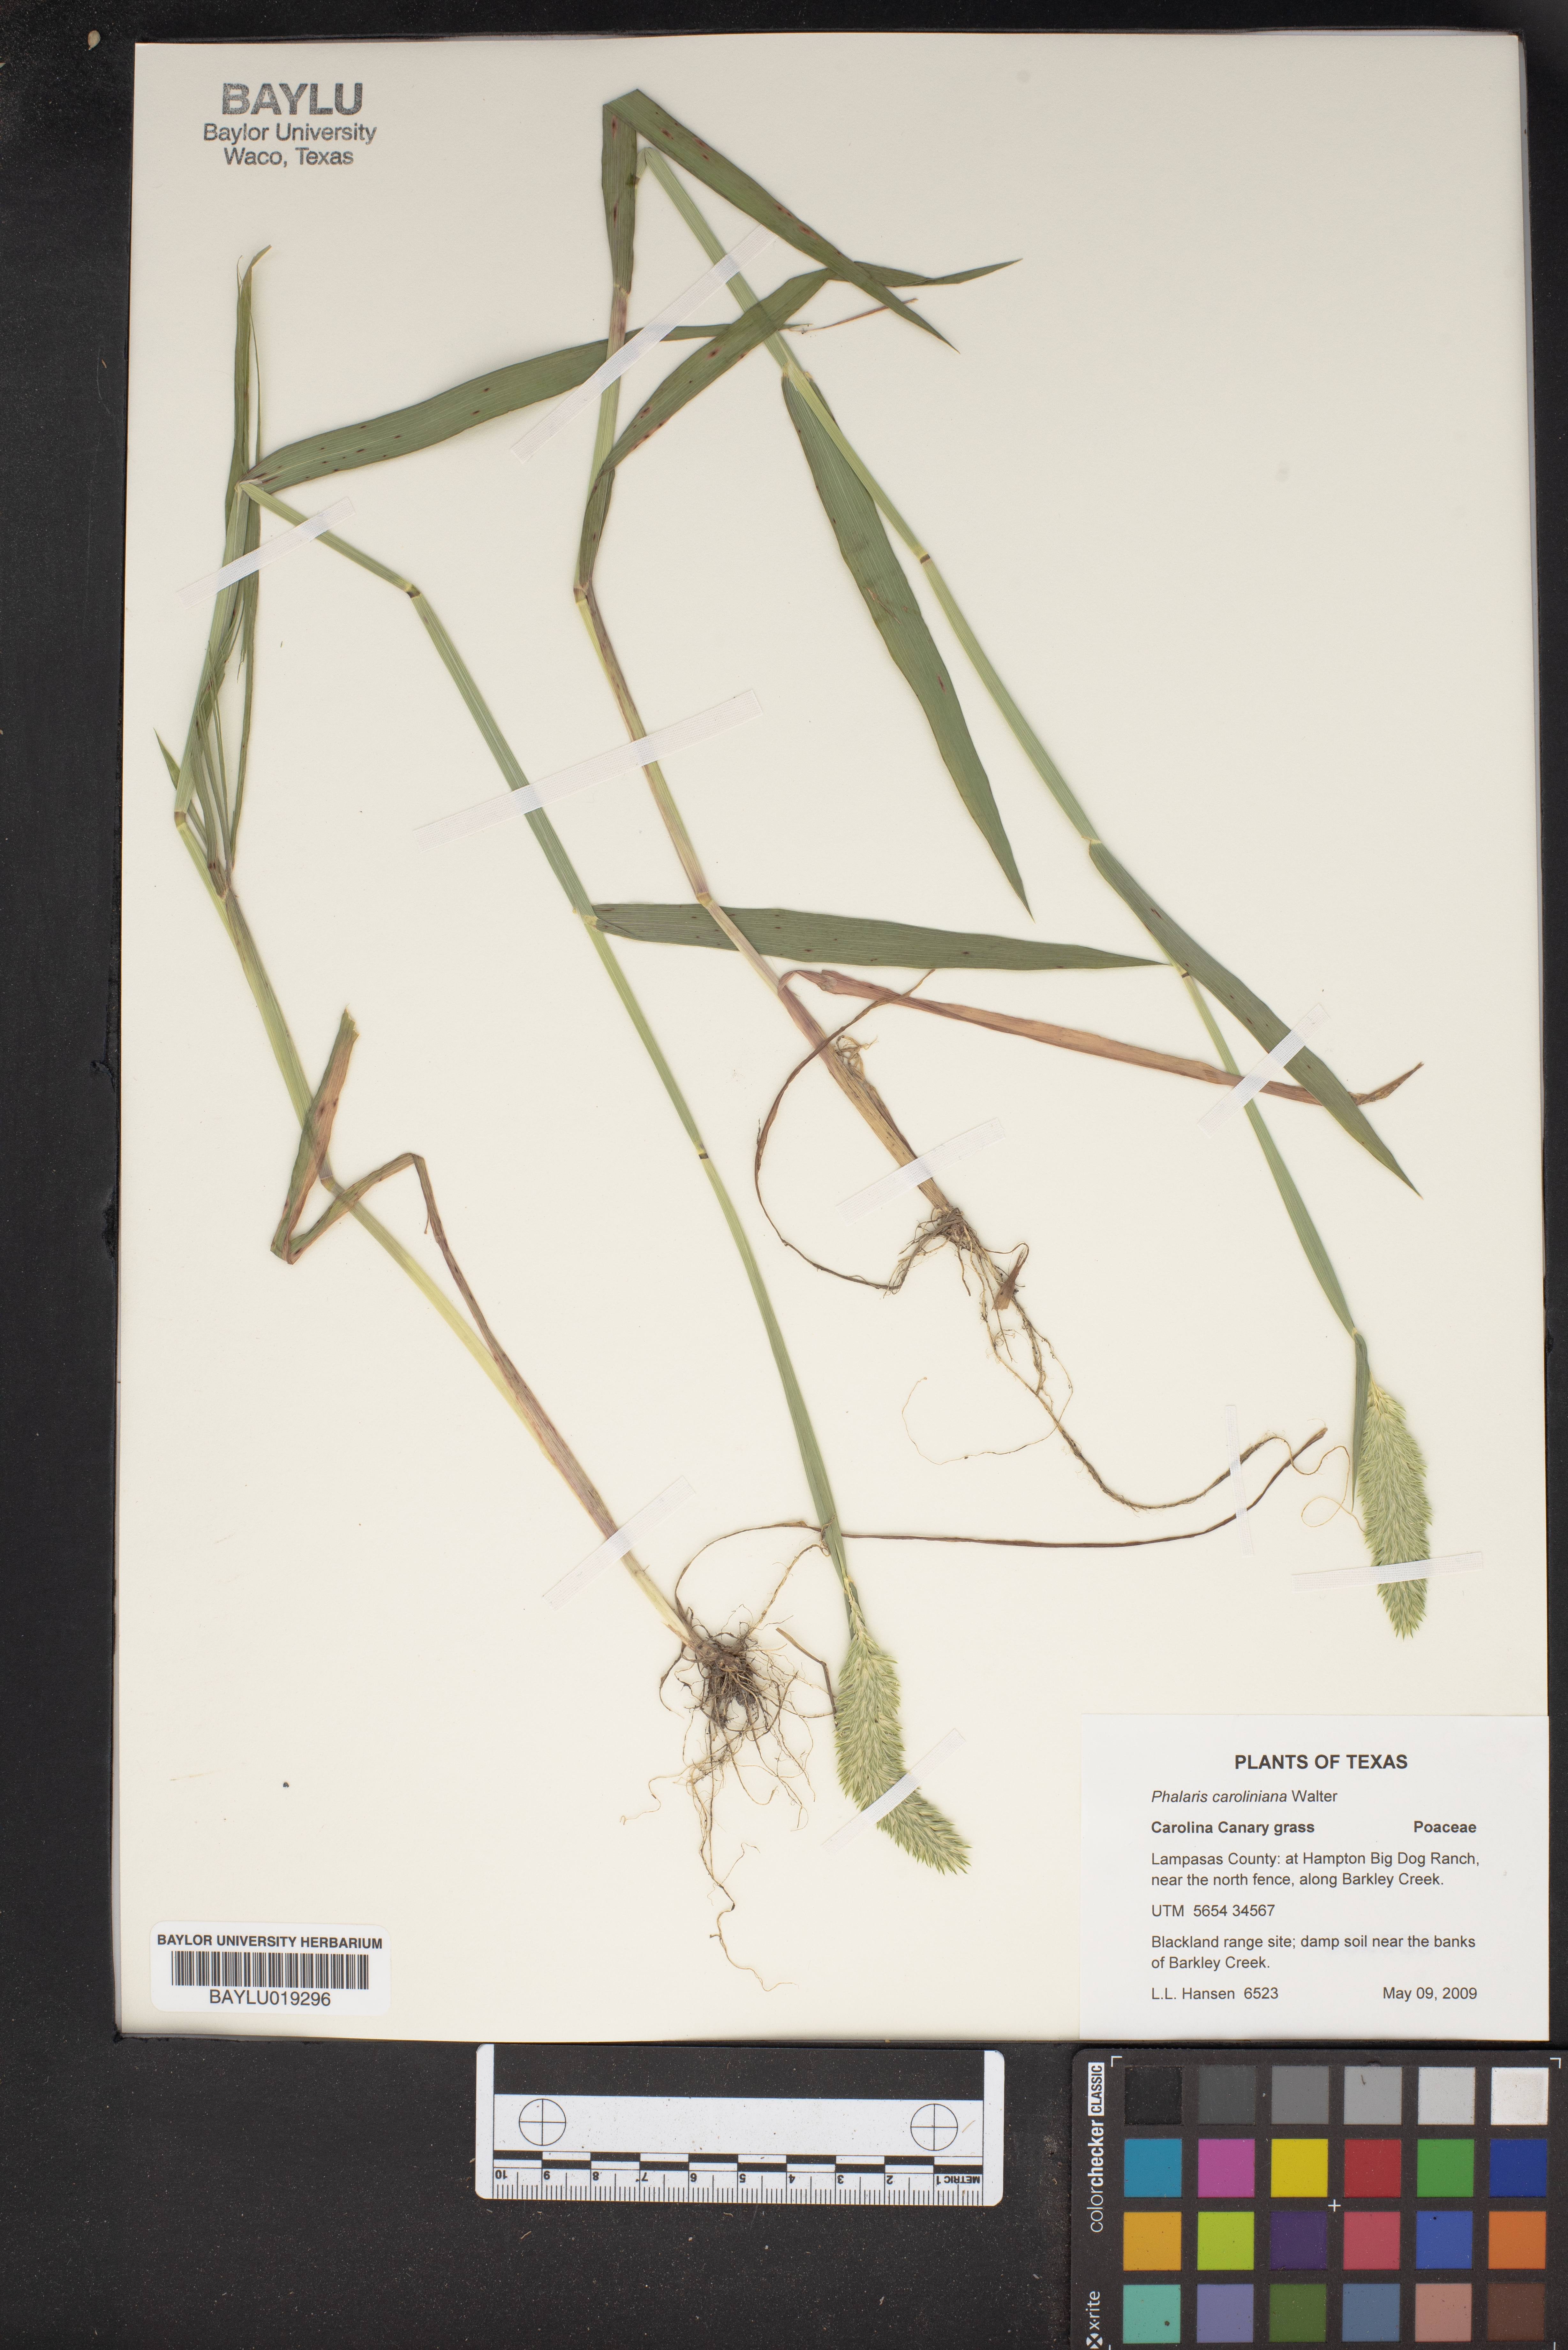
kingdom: Plantae
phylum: Tracheophyta
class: Liliopsida
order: Poales
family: Poaceae
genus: Phalaris
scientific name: Phalaris caroliniana
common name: May grass
